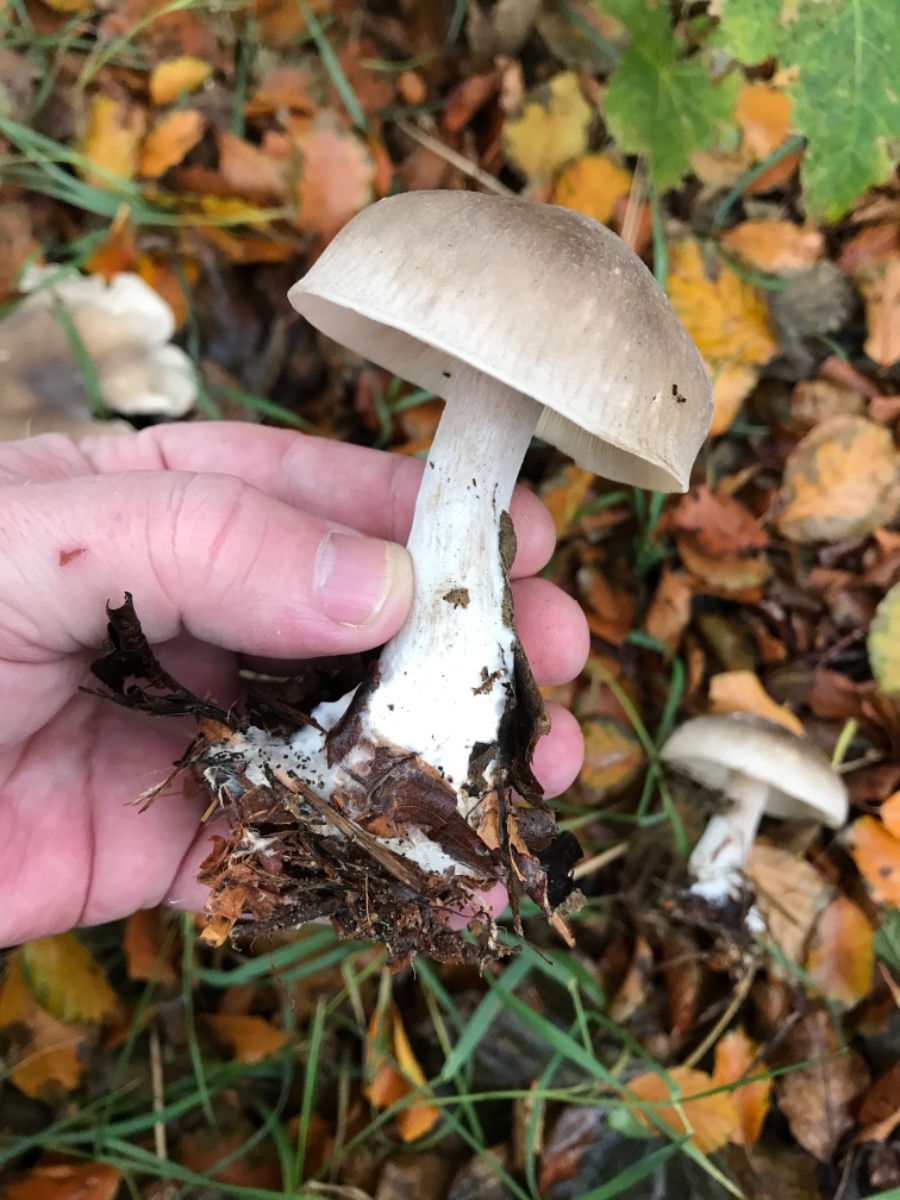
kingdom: Fungi
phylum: Basidiomycota
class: Agaricomycetes
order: Agaricales
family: Tricholomataceae
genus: Clitocybe
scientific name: Clitocybe nebularis
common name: tåge-tragthat
